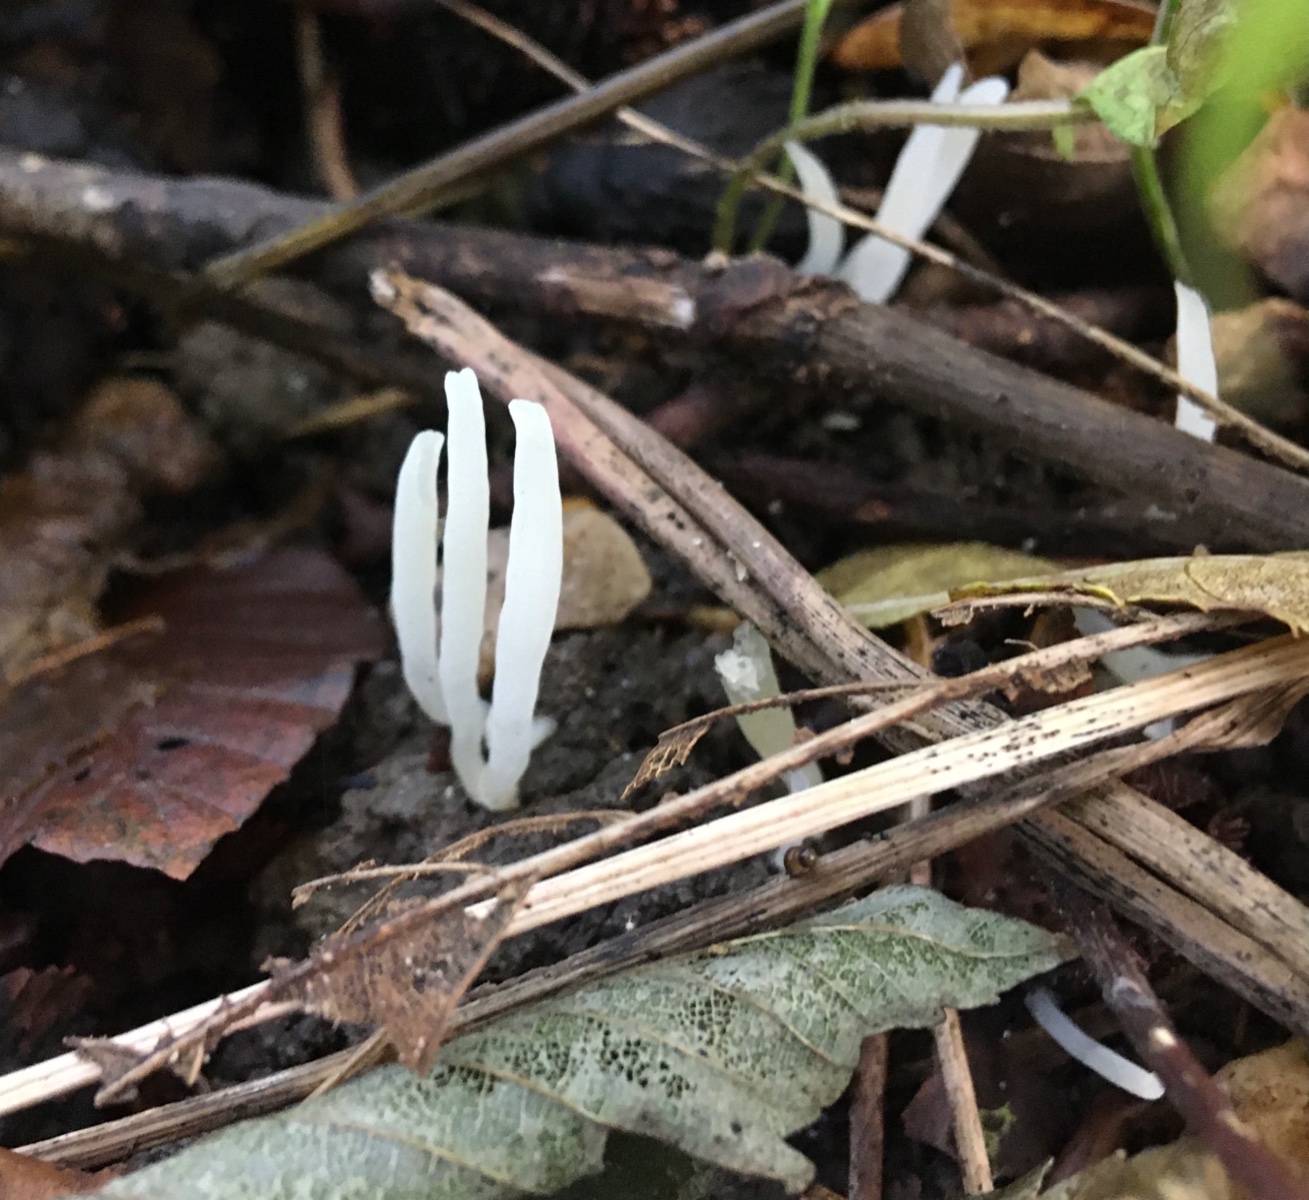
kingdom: Fungi
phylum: Basidiomycota
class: Agaricomycetes
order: Agaricales
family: Clavariaceae
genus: Clavaria
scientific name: Clavaria falcata
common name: hvid køllesvamp
